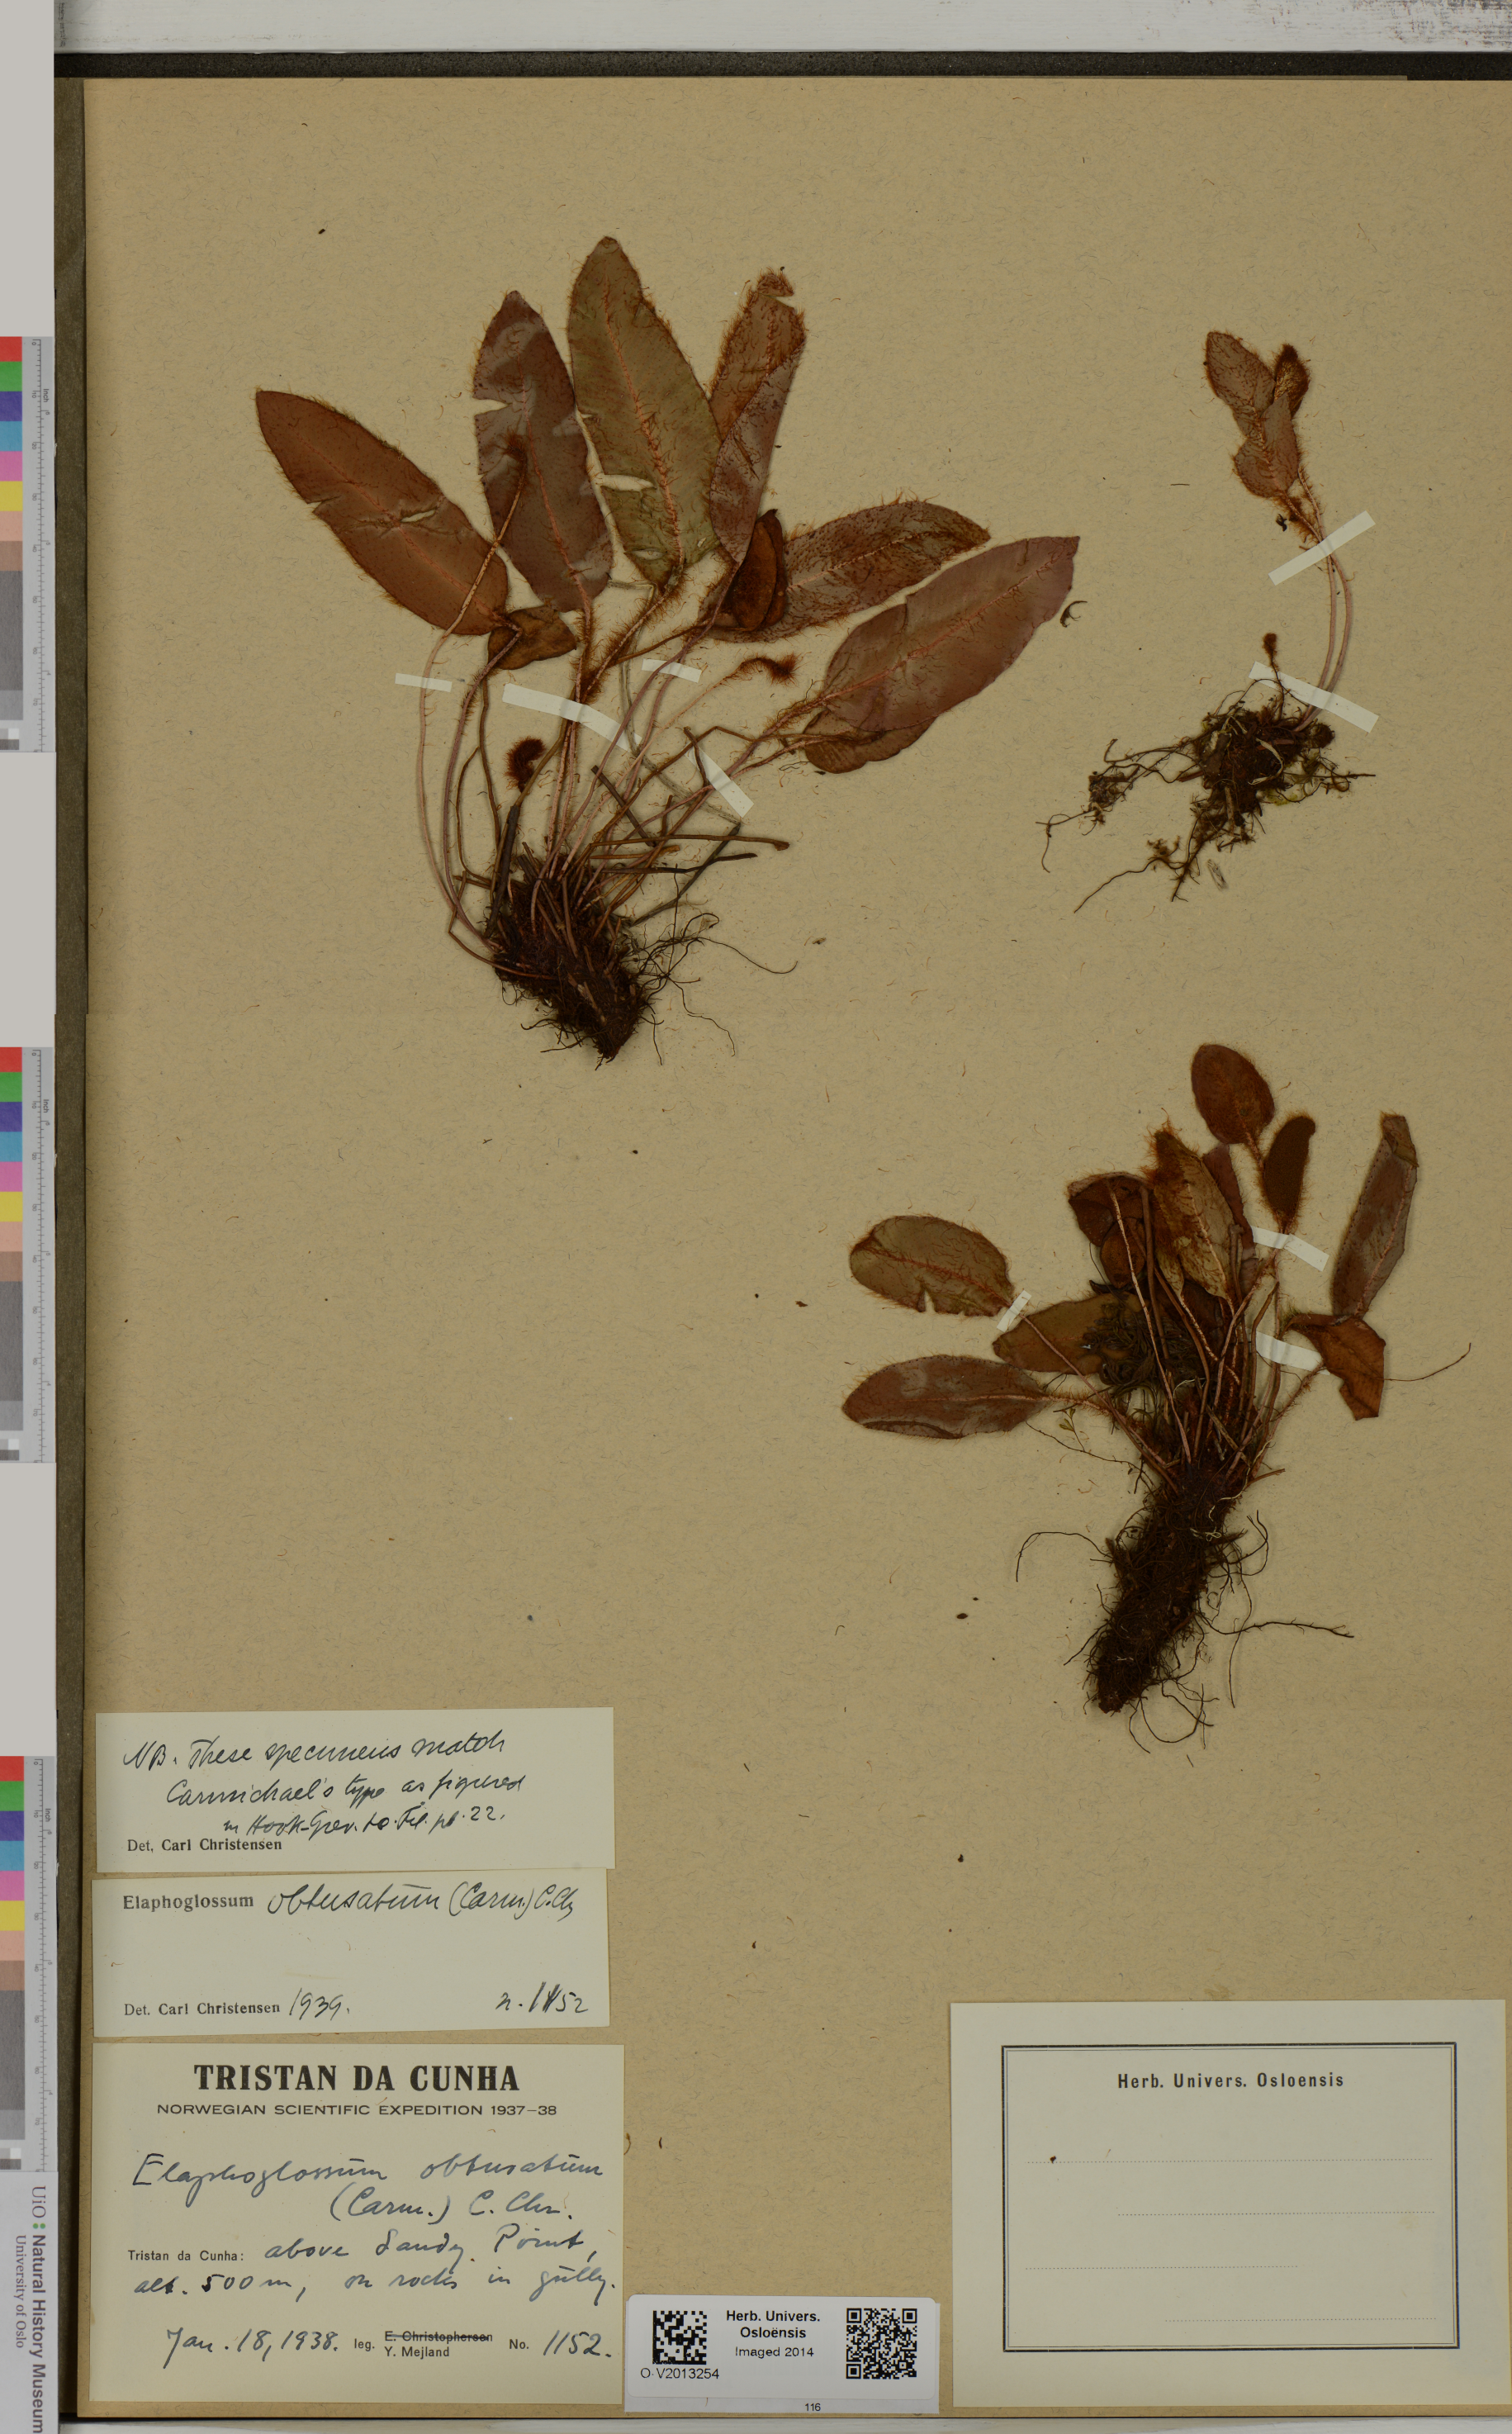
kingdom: Plantae
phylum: Tracheophyta
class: Polypodiopsida
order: Polypodiales
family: Dryopteridaceae
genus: Elaphoglossum
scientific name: Elaphoglossum obtusatum
